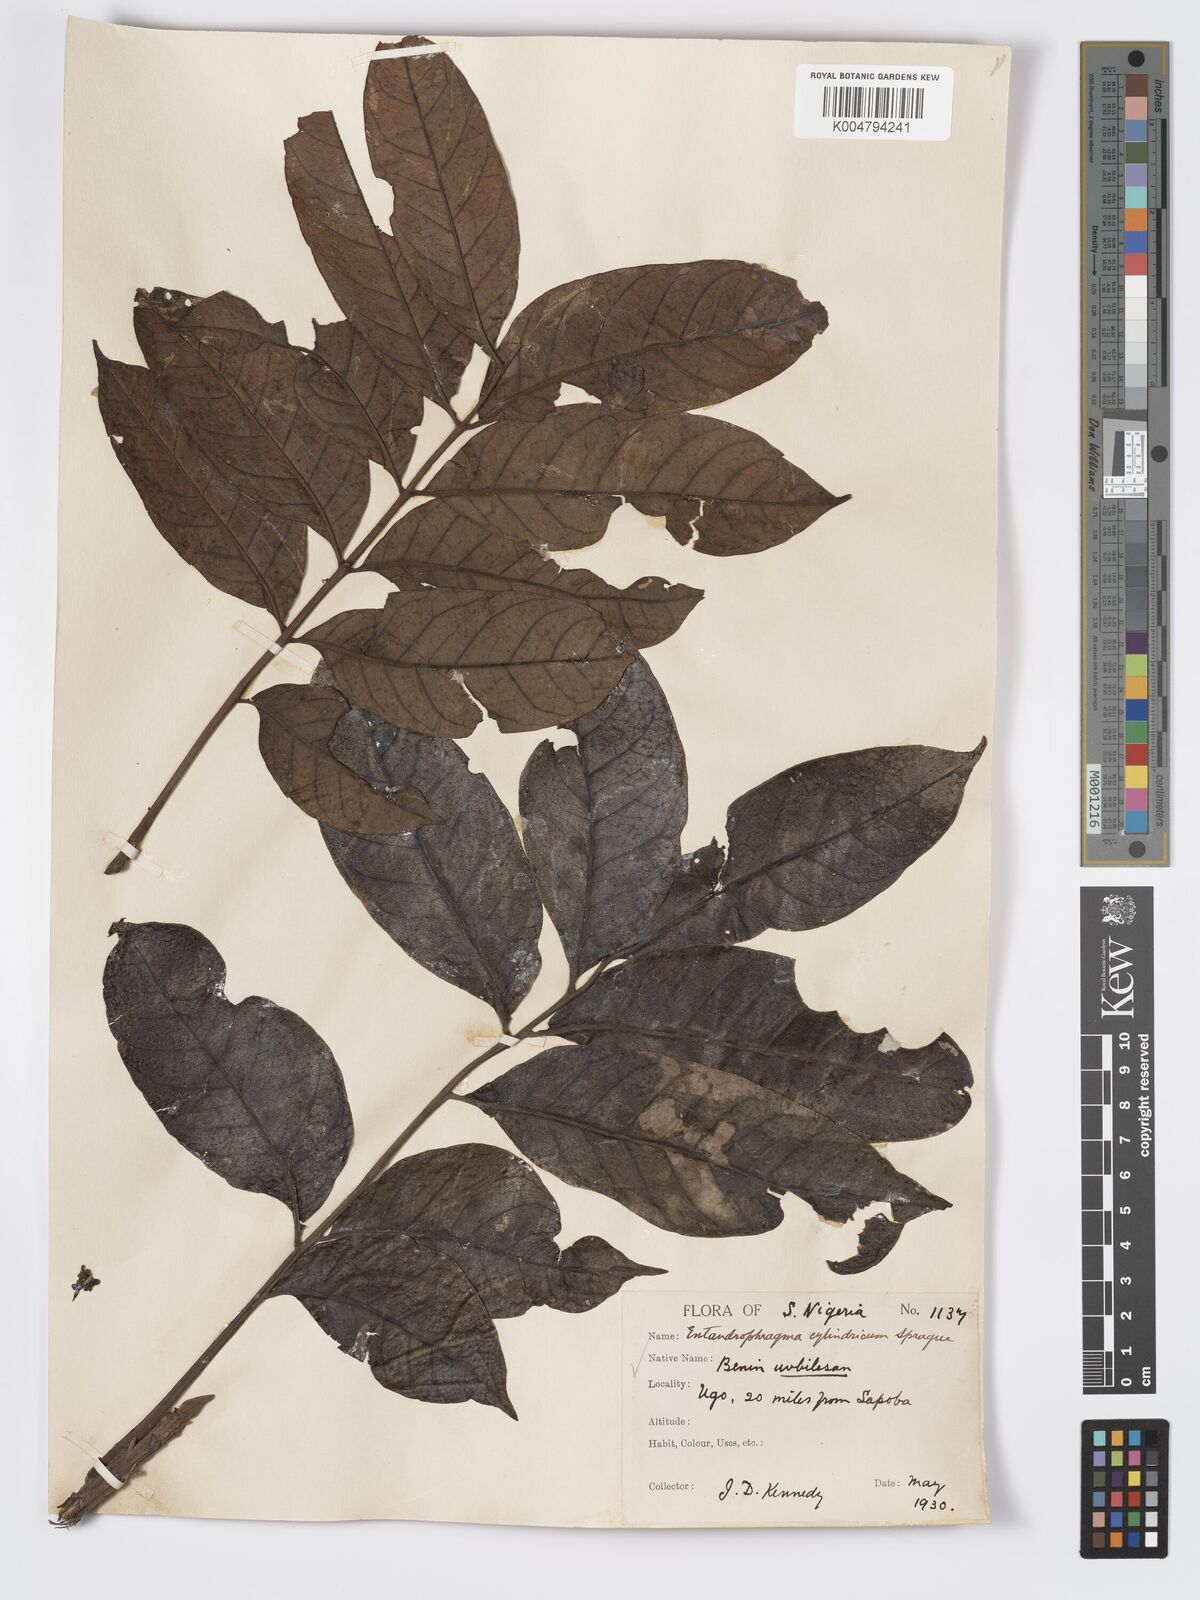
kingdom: Plantae
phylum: Tracheophyta
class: Magnoliopsida
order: Sapindales
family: Meliaceae
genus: Entandrophragma
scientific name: Entandrophragma cylindricum
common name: Sapele
